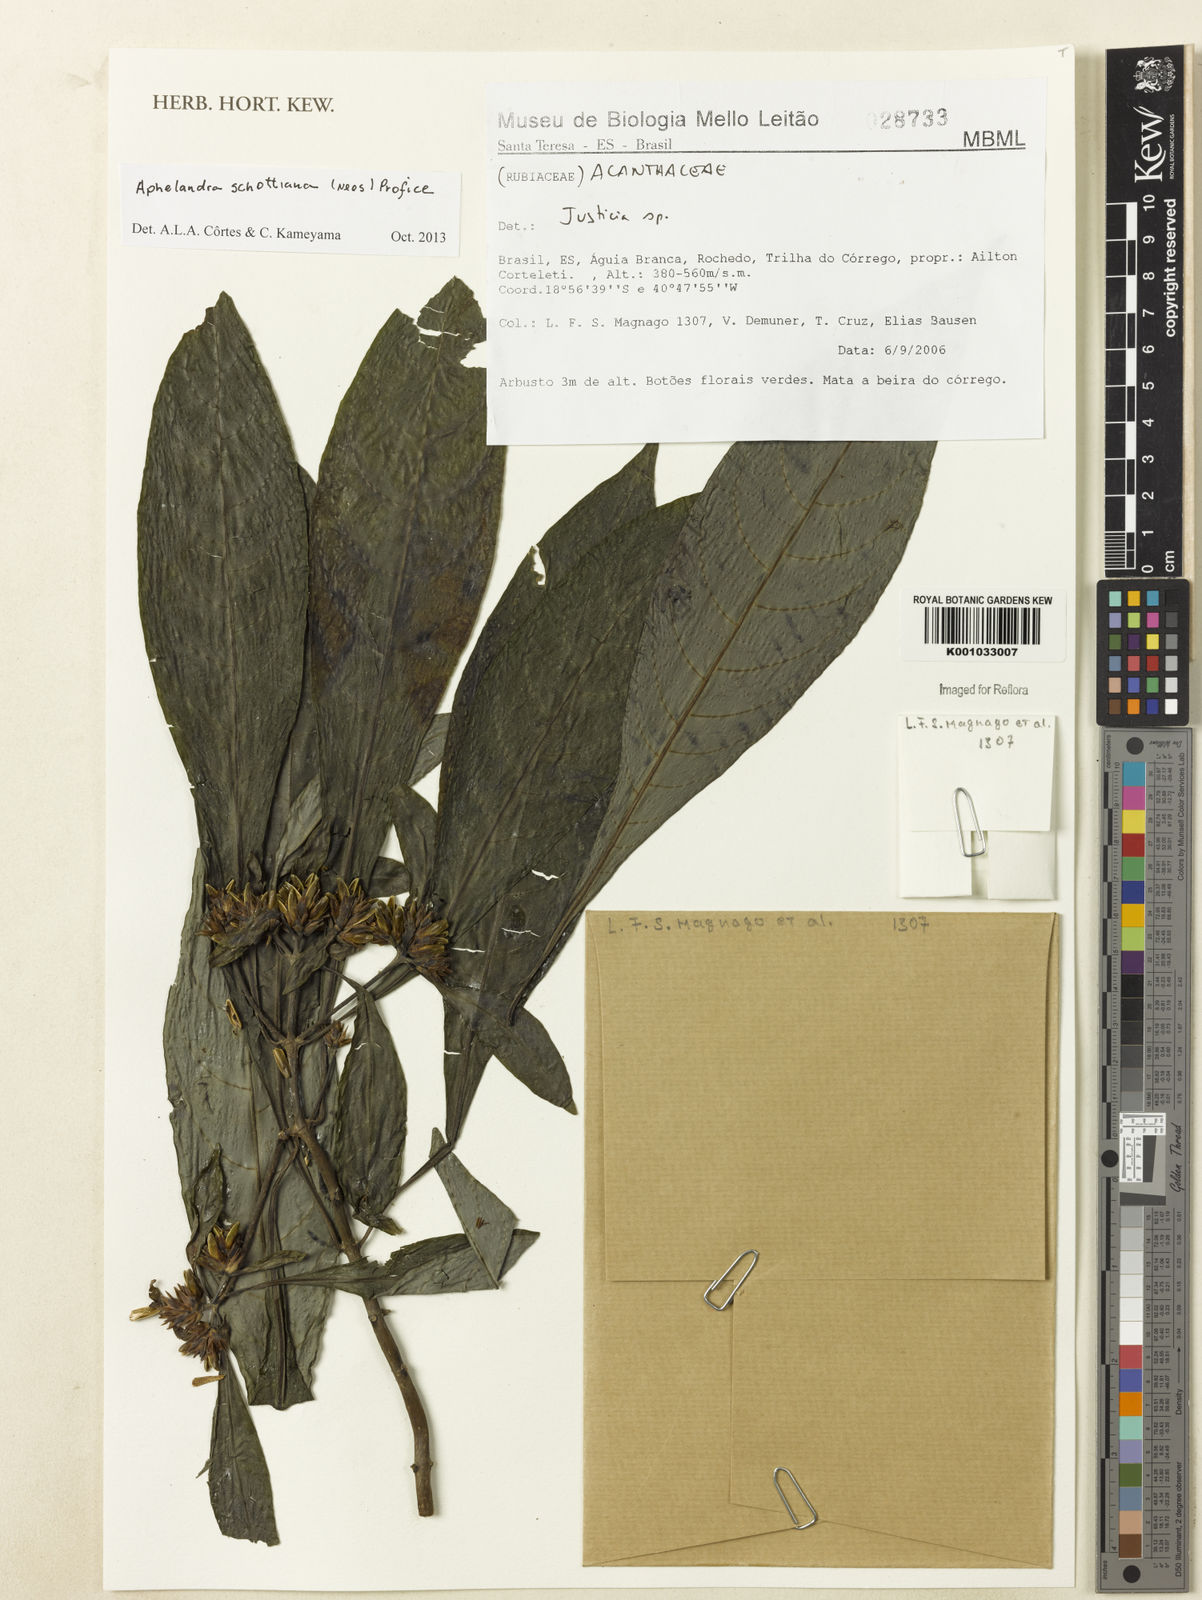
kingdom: Plantae
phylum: Tracheophyta
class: Magnoliopsida
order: Lamiales
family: Acanthaceae
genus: Aphelandra
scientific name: Aphelandra schottiana
